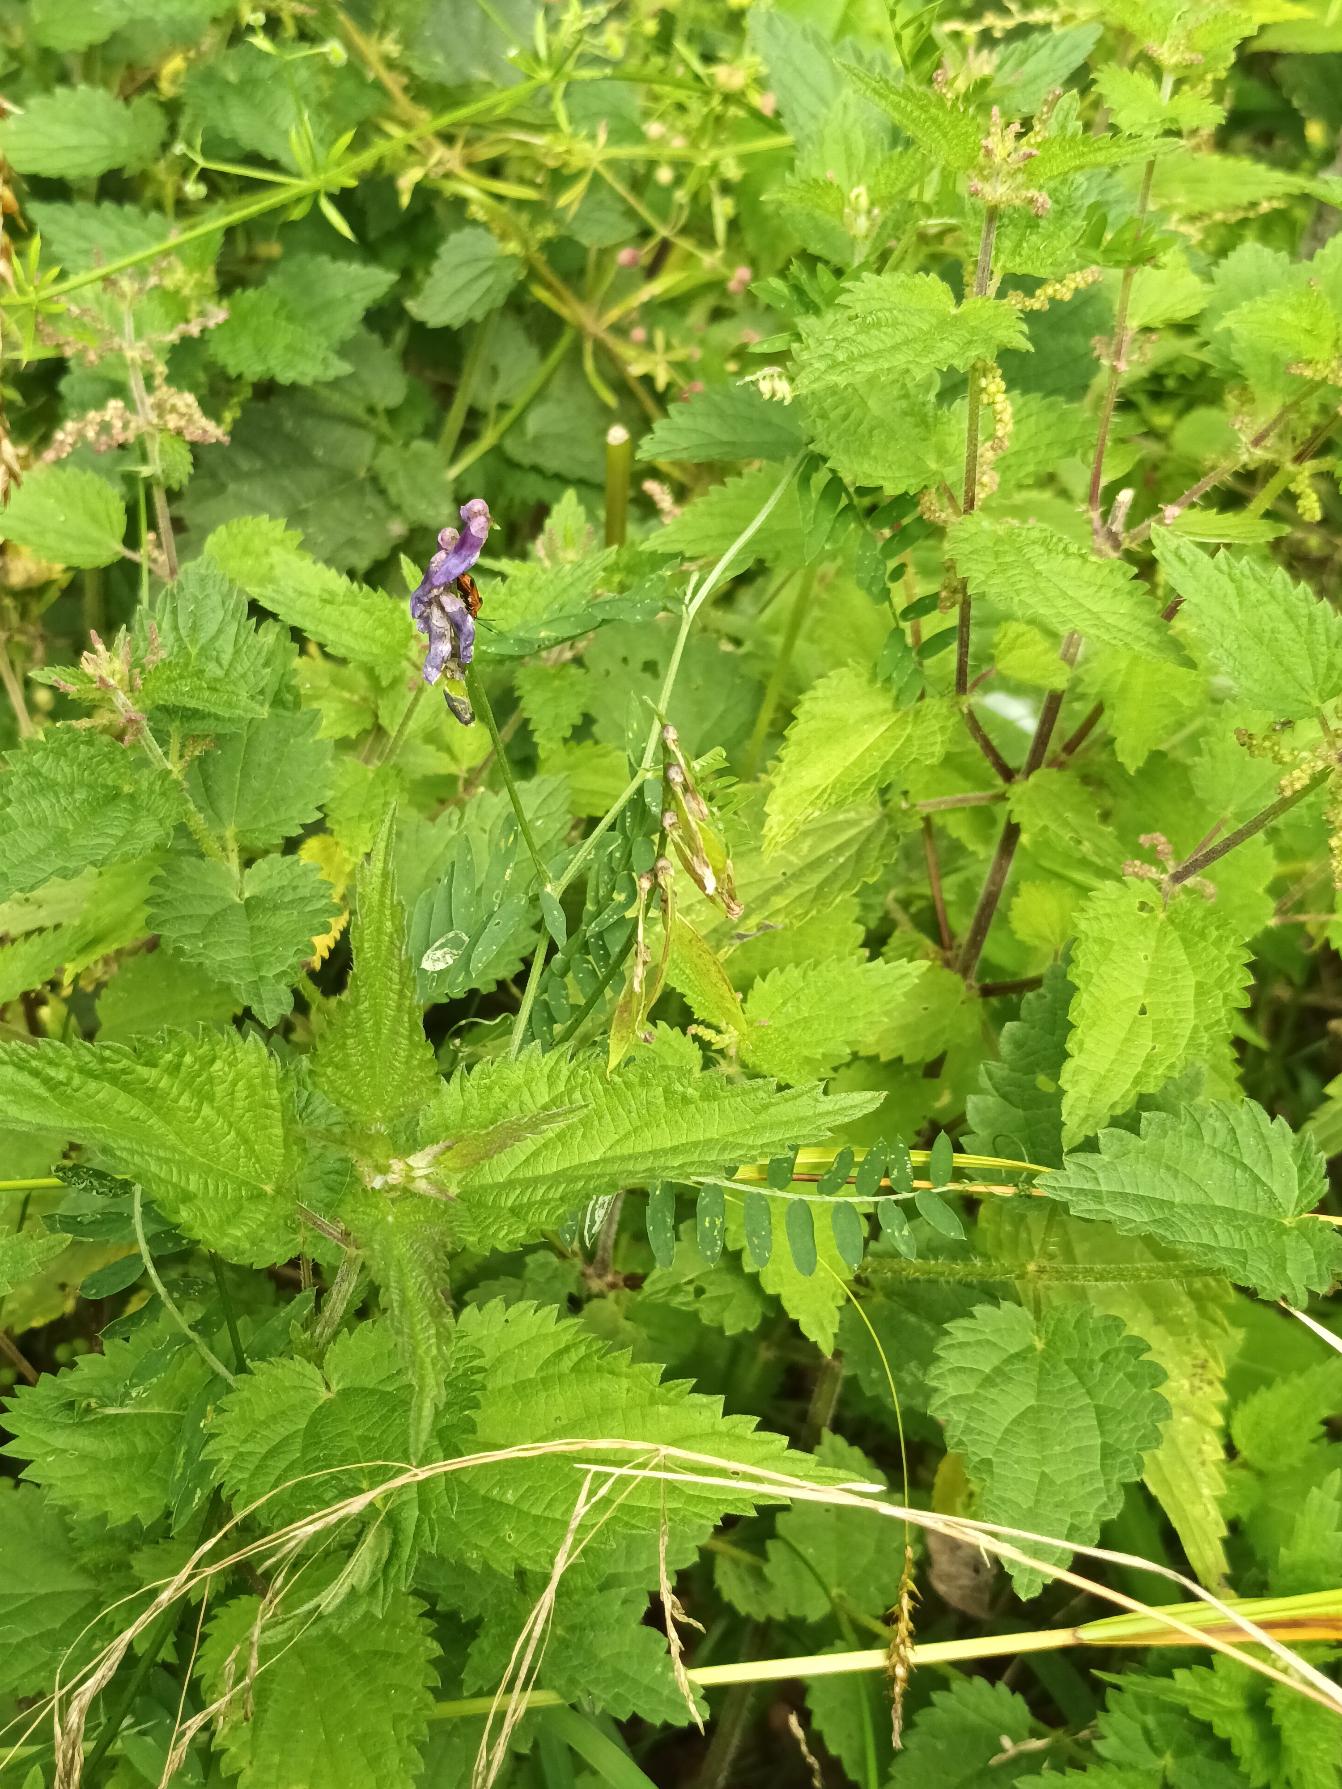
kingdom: Plantae
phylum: Tracheophyta
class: Magnoliopsida
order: Fabales
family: Fabaceae
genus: Vicia
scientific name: Vicia cracca
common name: Muse-vikke
